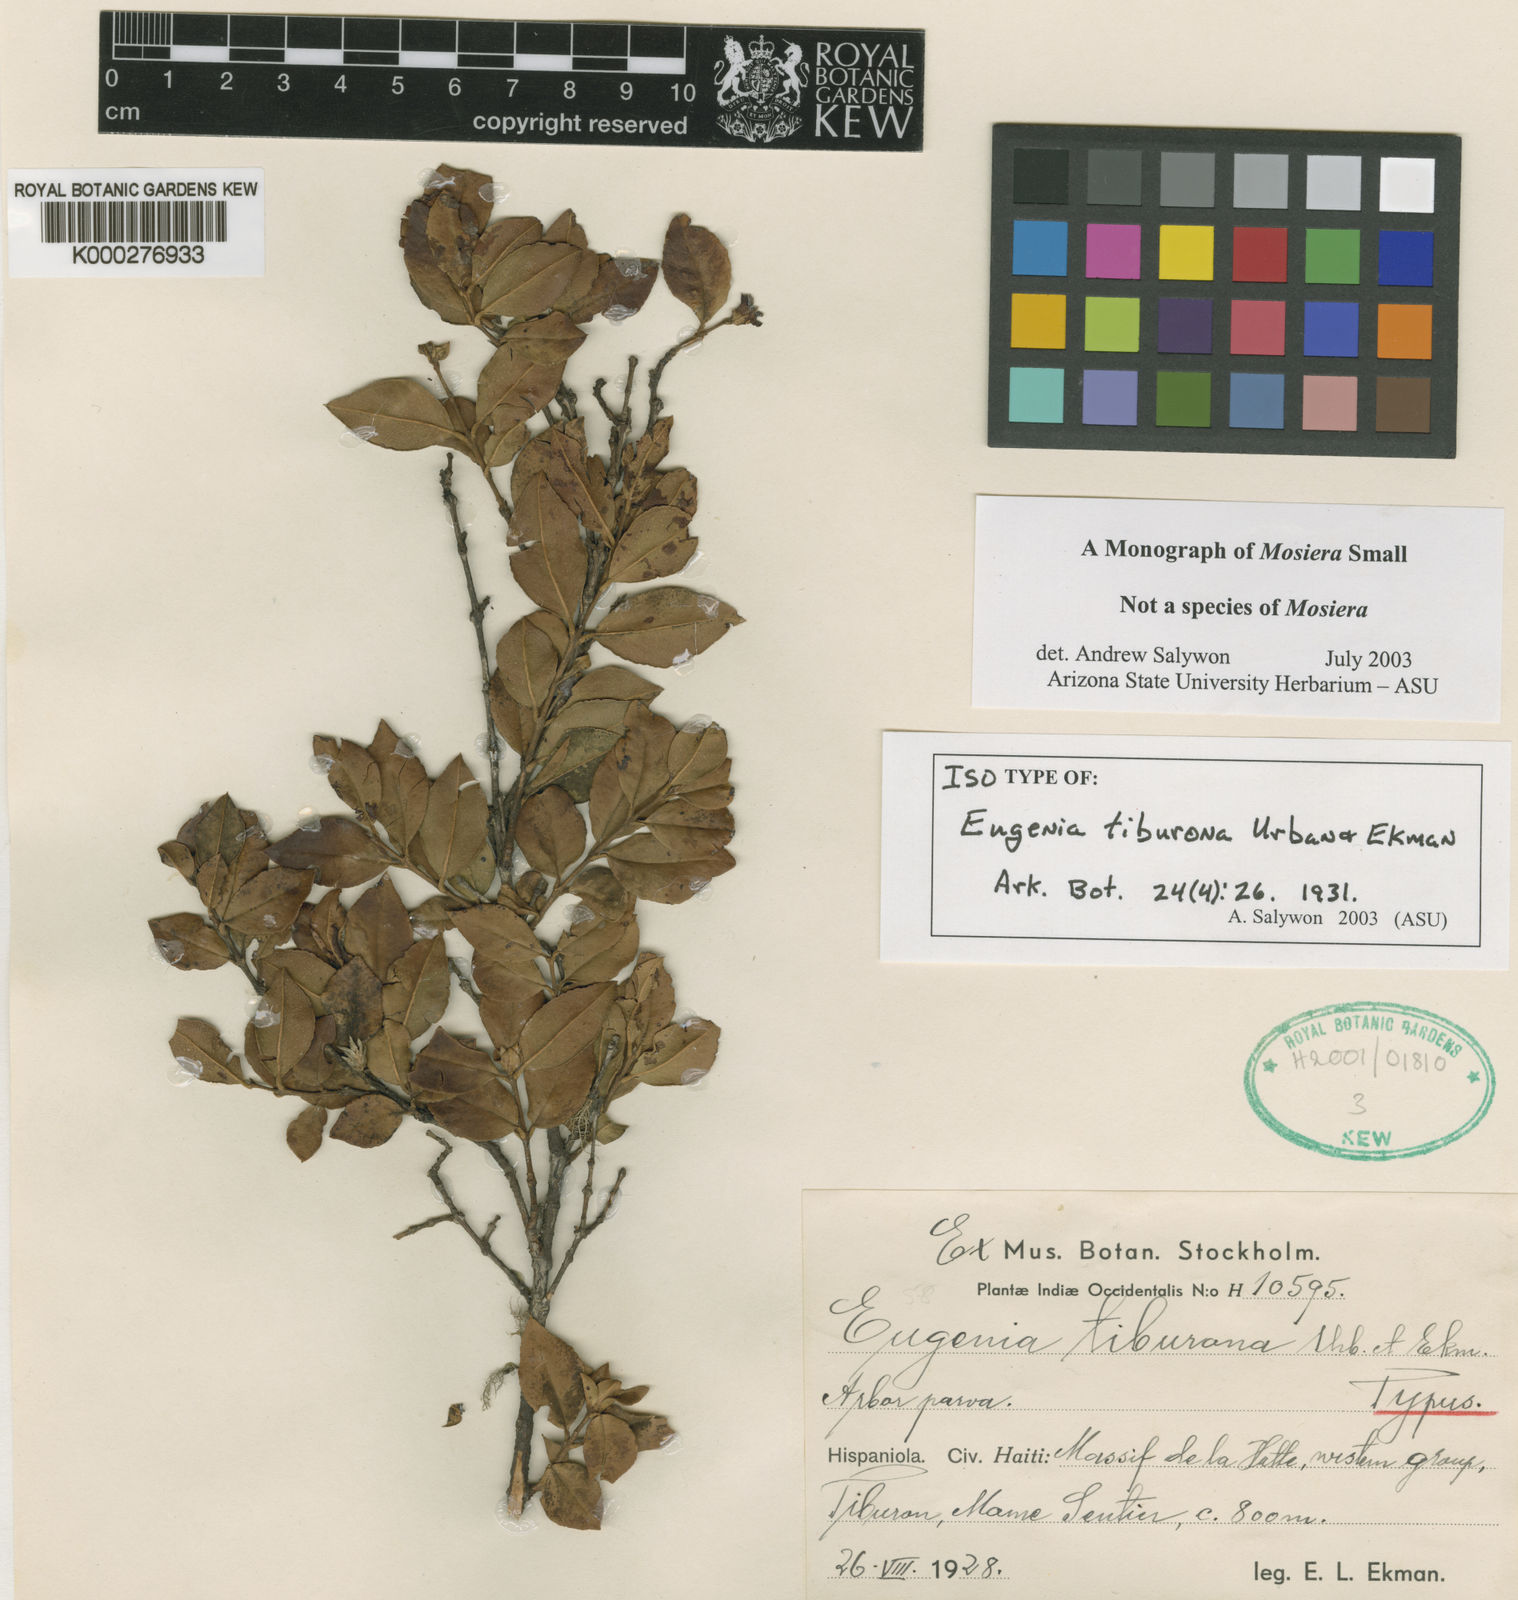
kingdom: Plantae
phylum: Tracheophyta
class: Magnoliopsida
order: Myrtales
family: Myrtaceae
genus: Mosiera
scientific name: Mosiera tiburona
